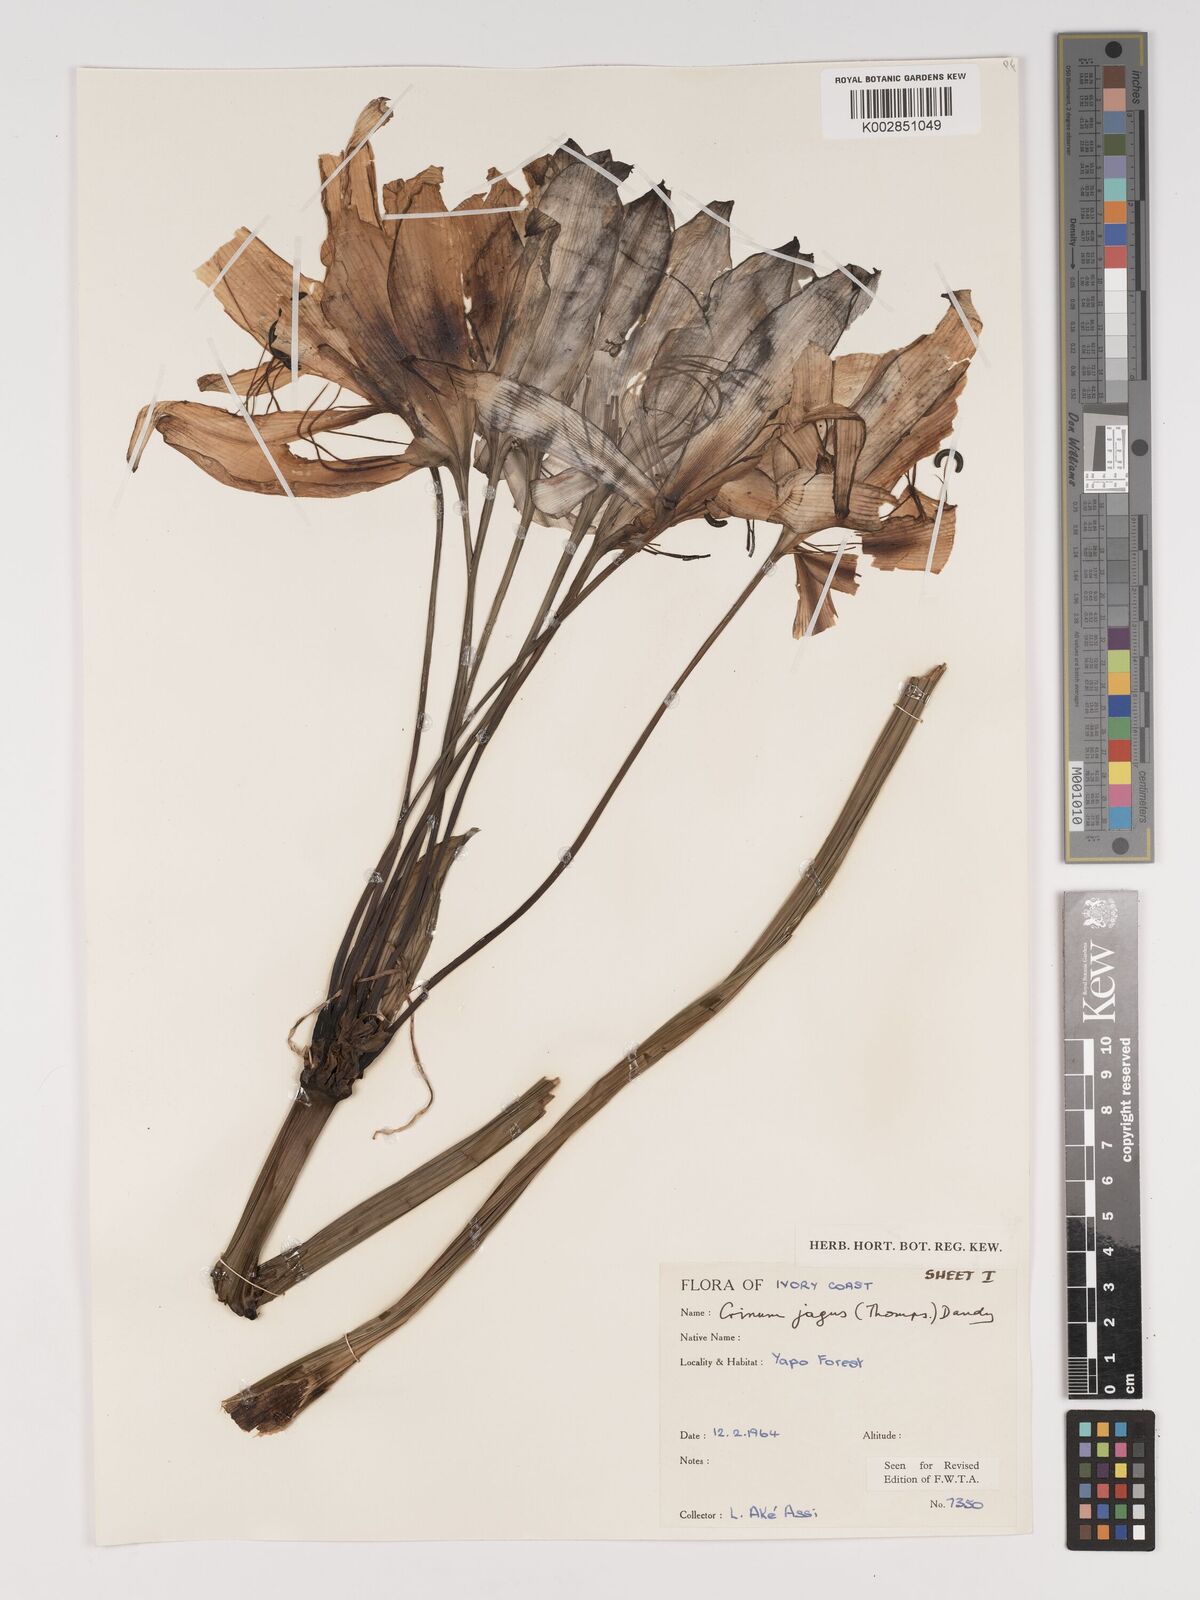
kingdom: Plantae
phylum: Tracheophyta
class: Liliopsida
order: Asparagales
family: Amaryllidaceae
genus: Crinum
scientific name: Crinum jagus
